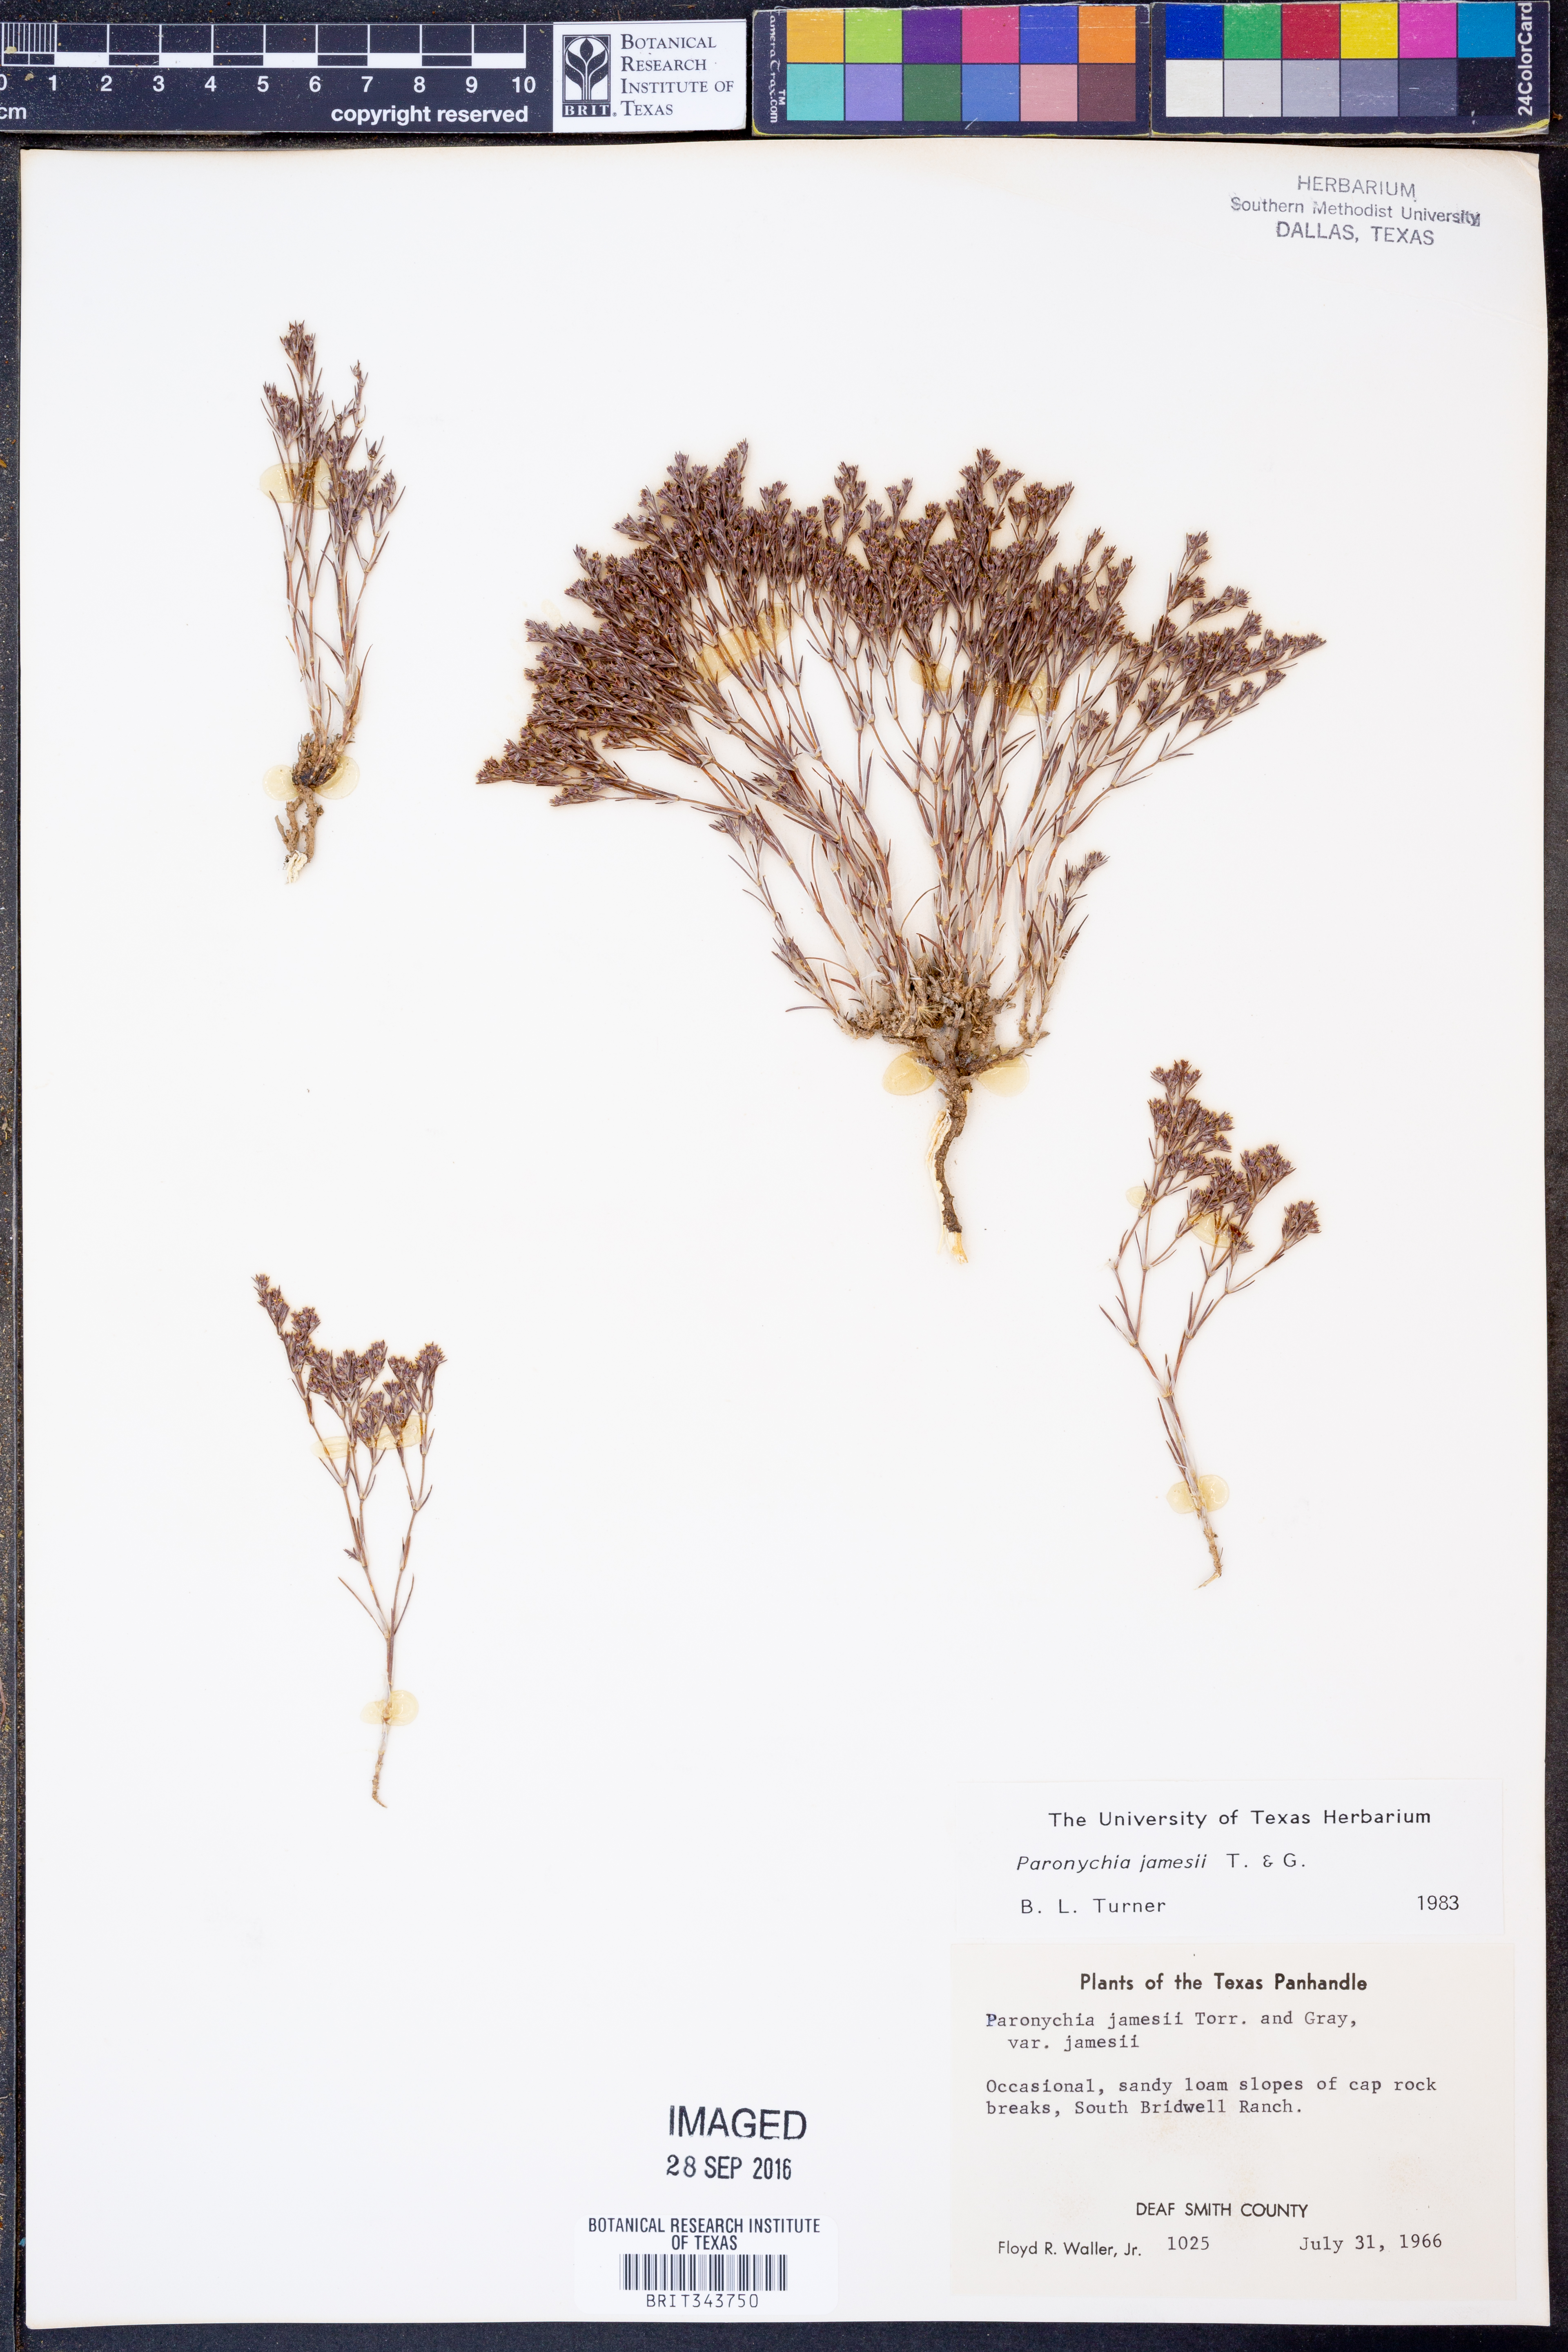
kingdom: Plantae
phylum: Tracheophyta
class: Magnoliopsida
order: Caryophyllales
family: Caryophyllaceae
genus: Paronychia
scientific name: Paronychia jamesii
